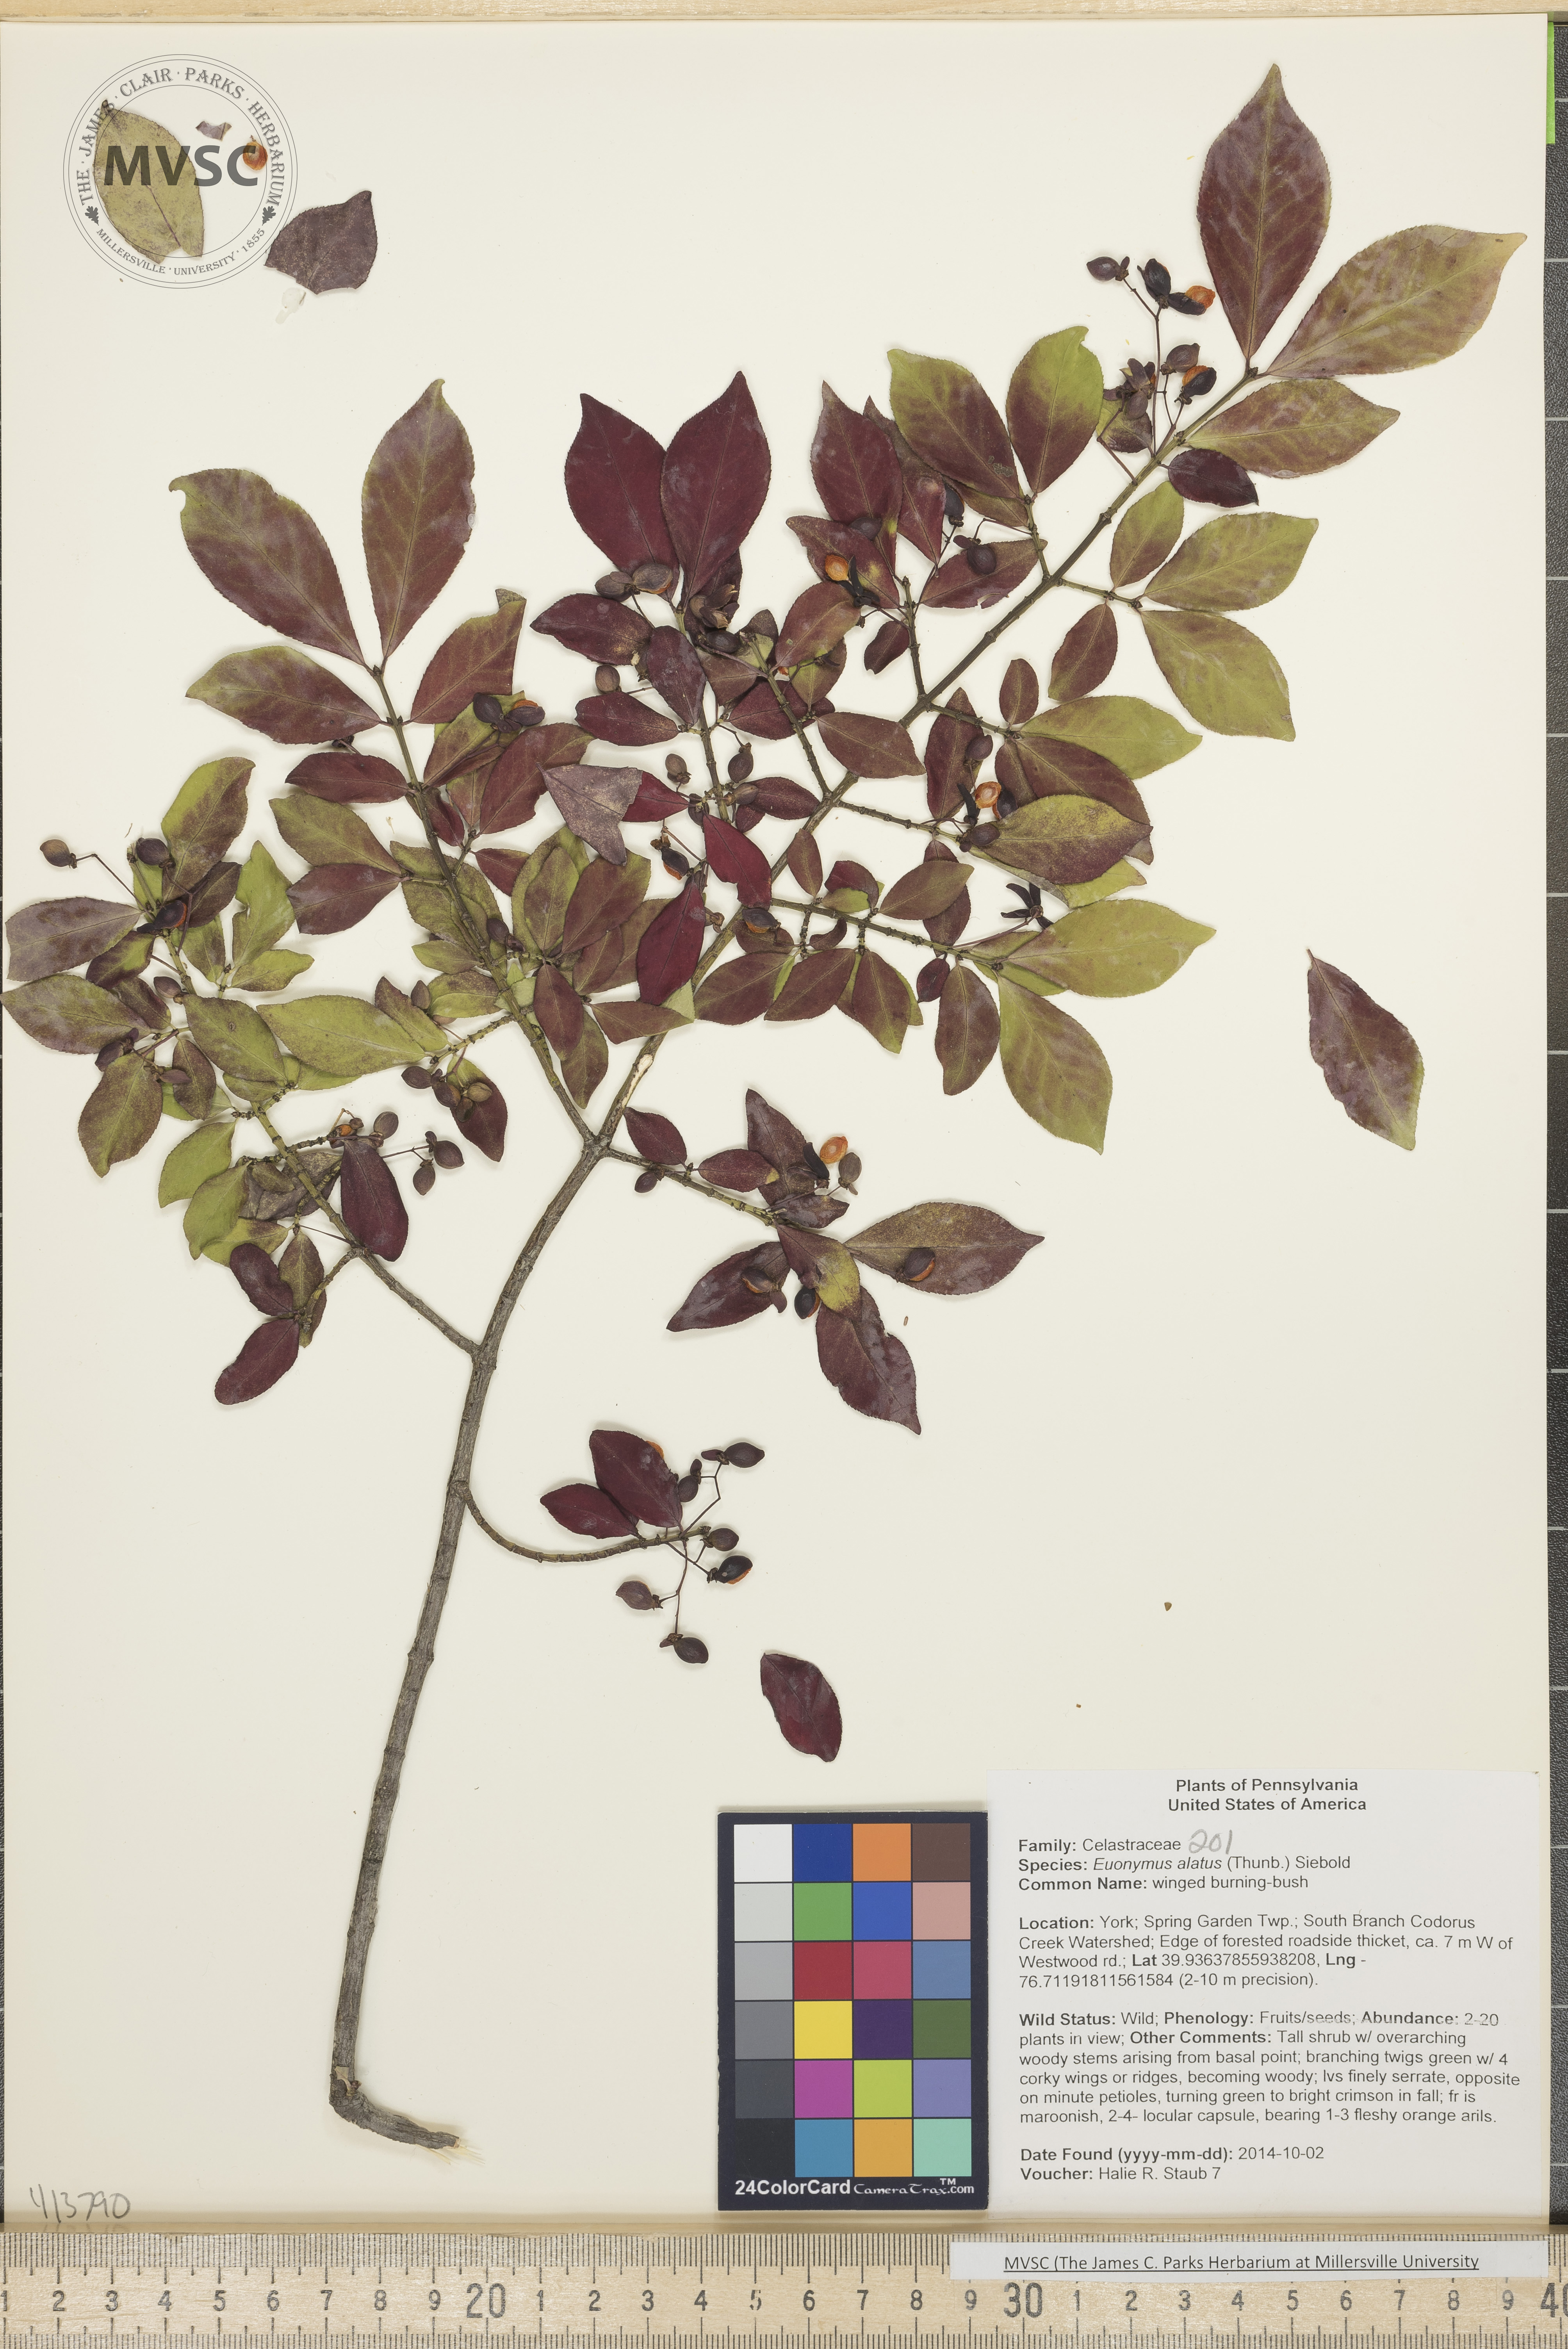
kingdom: Plantae
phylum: Tracheophyta
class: Magnoliopsida
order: Celastrales
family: Celastraceae
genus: Euonymus
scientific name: Euonymus alatus
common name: Winged burning-bush
